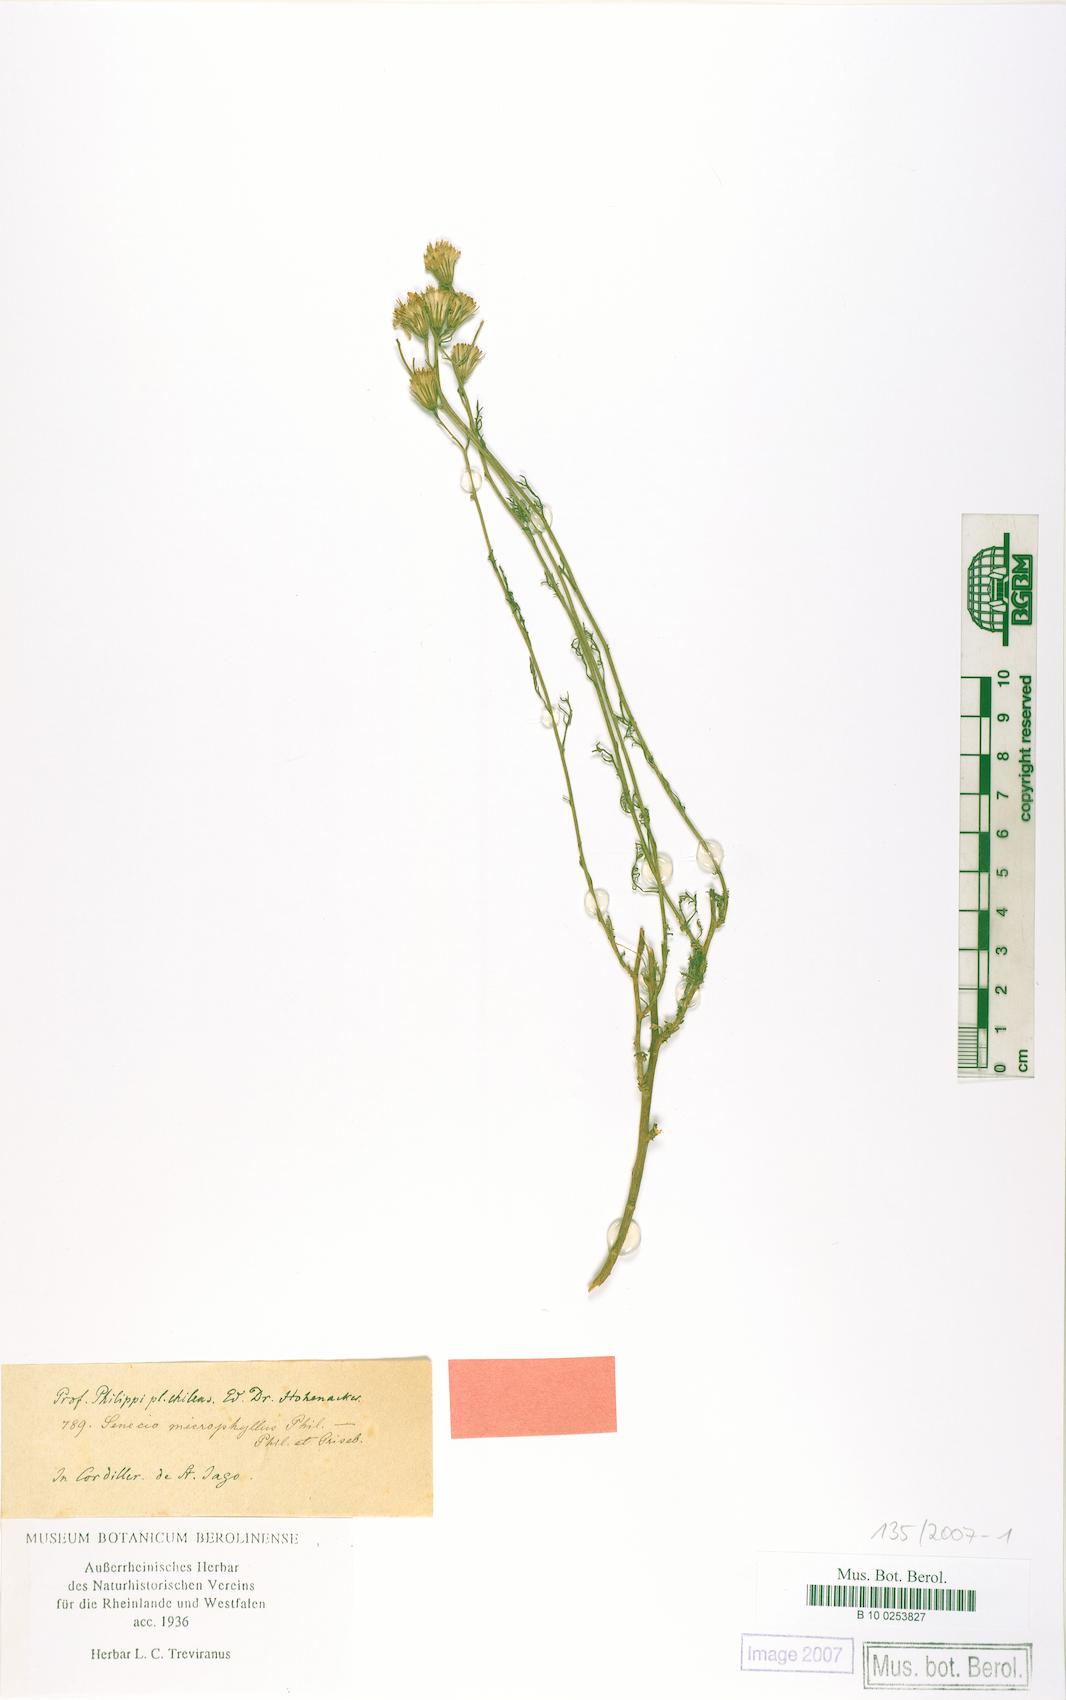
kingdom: Plantae
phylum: Tracheophyta
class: Magnoliopsida
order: Asterales
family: Asteraceae
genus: Senecio
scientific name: Senecio microphyllus
